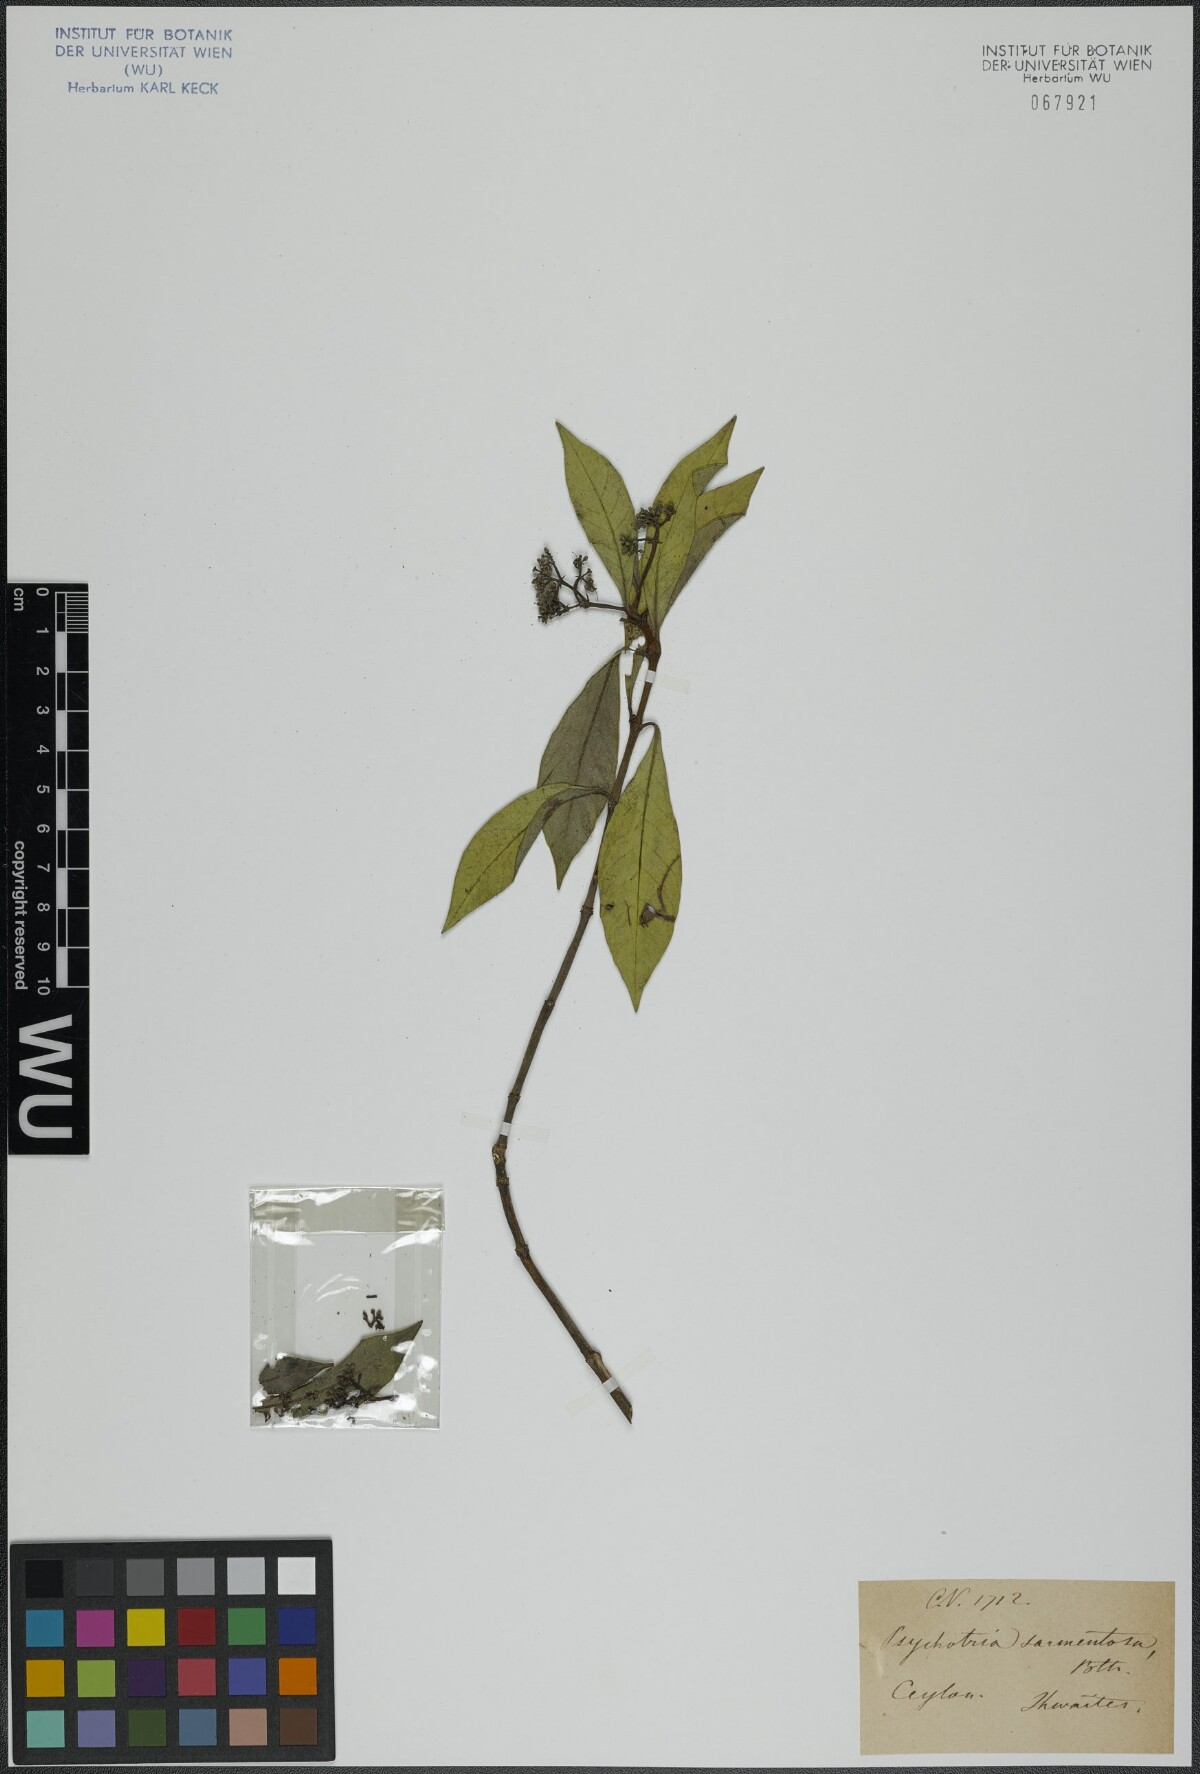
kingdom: Plantae
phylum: Tracheophyta
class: Magnoliopsida
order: Gentianales
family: Rubiaceae
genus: Psychotria
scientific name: Psychotria sarmentosa
